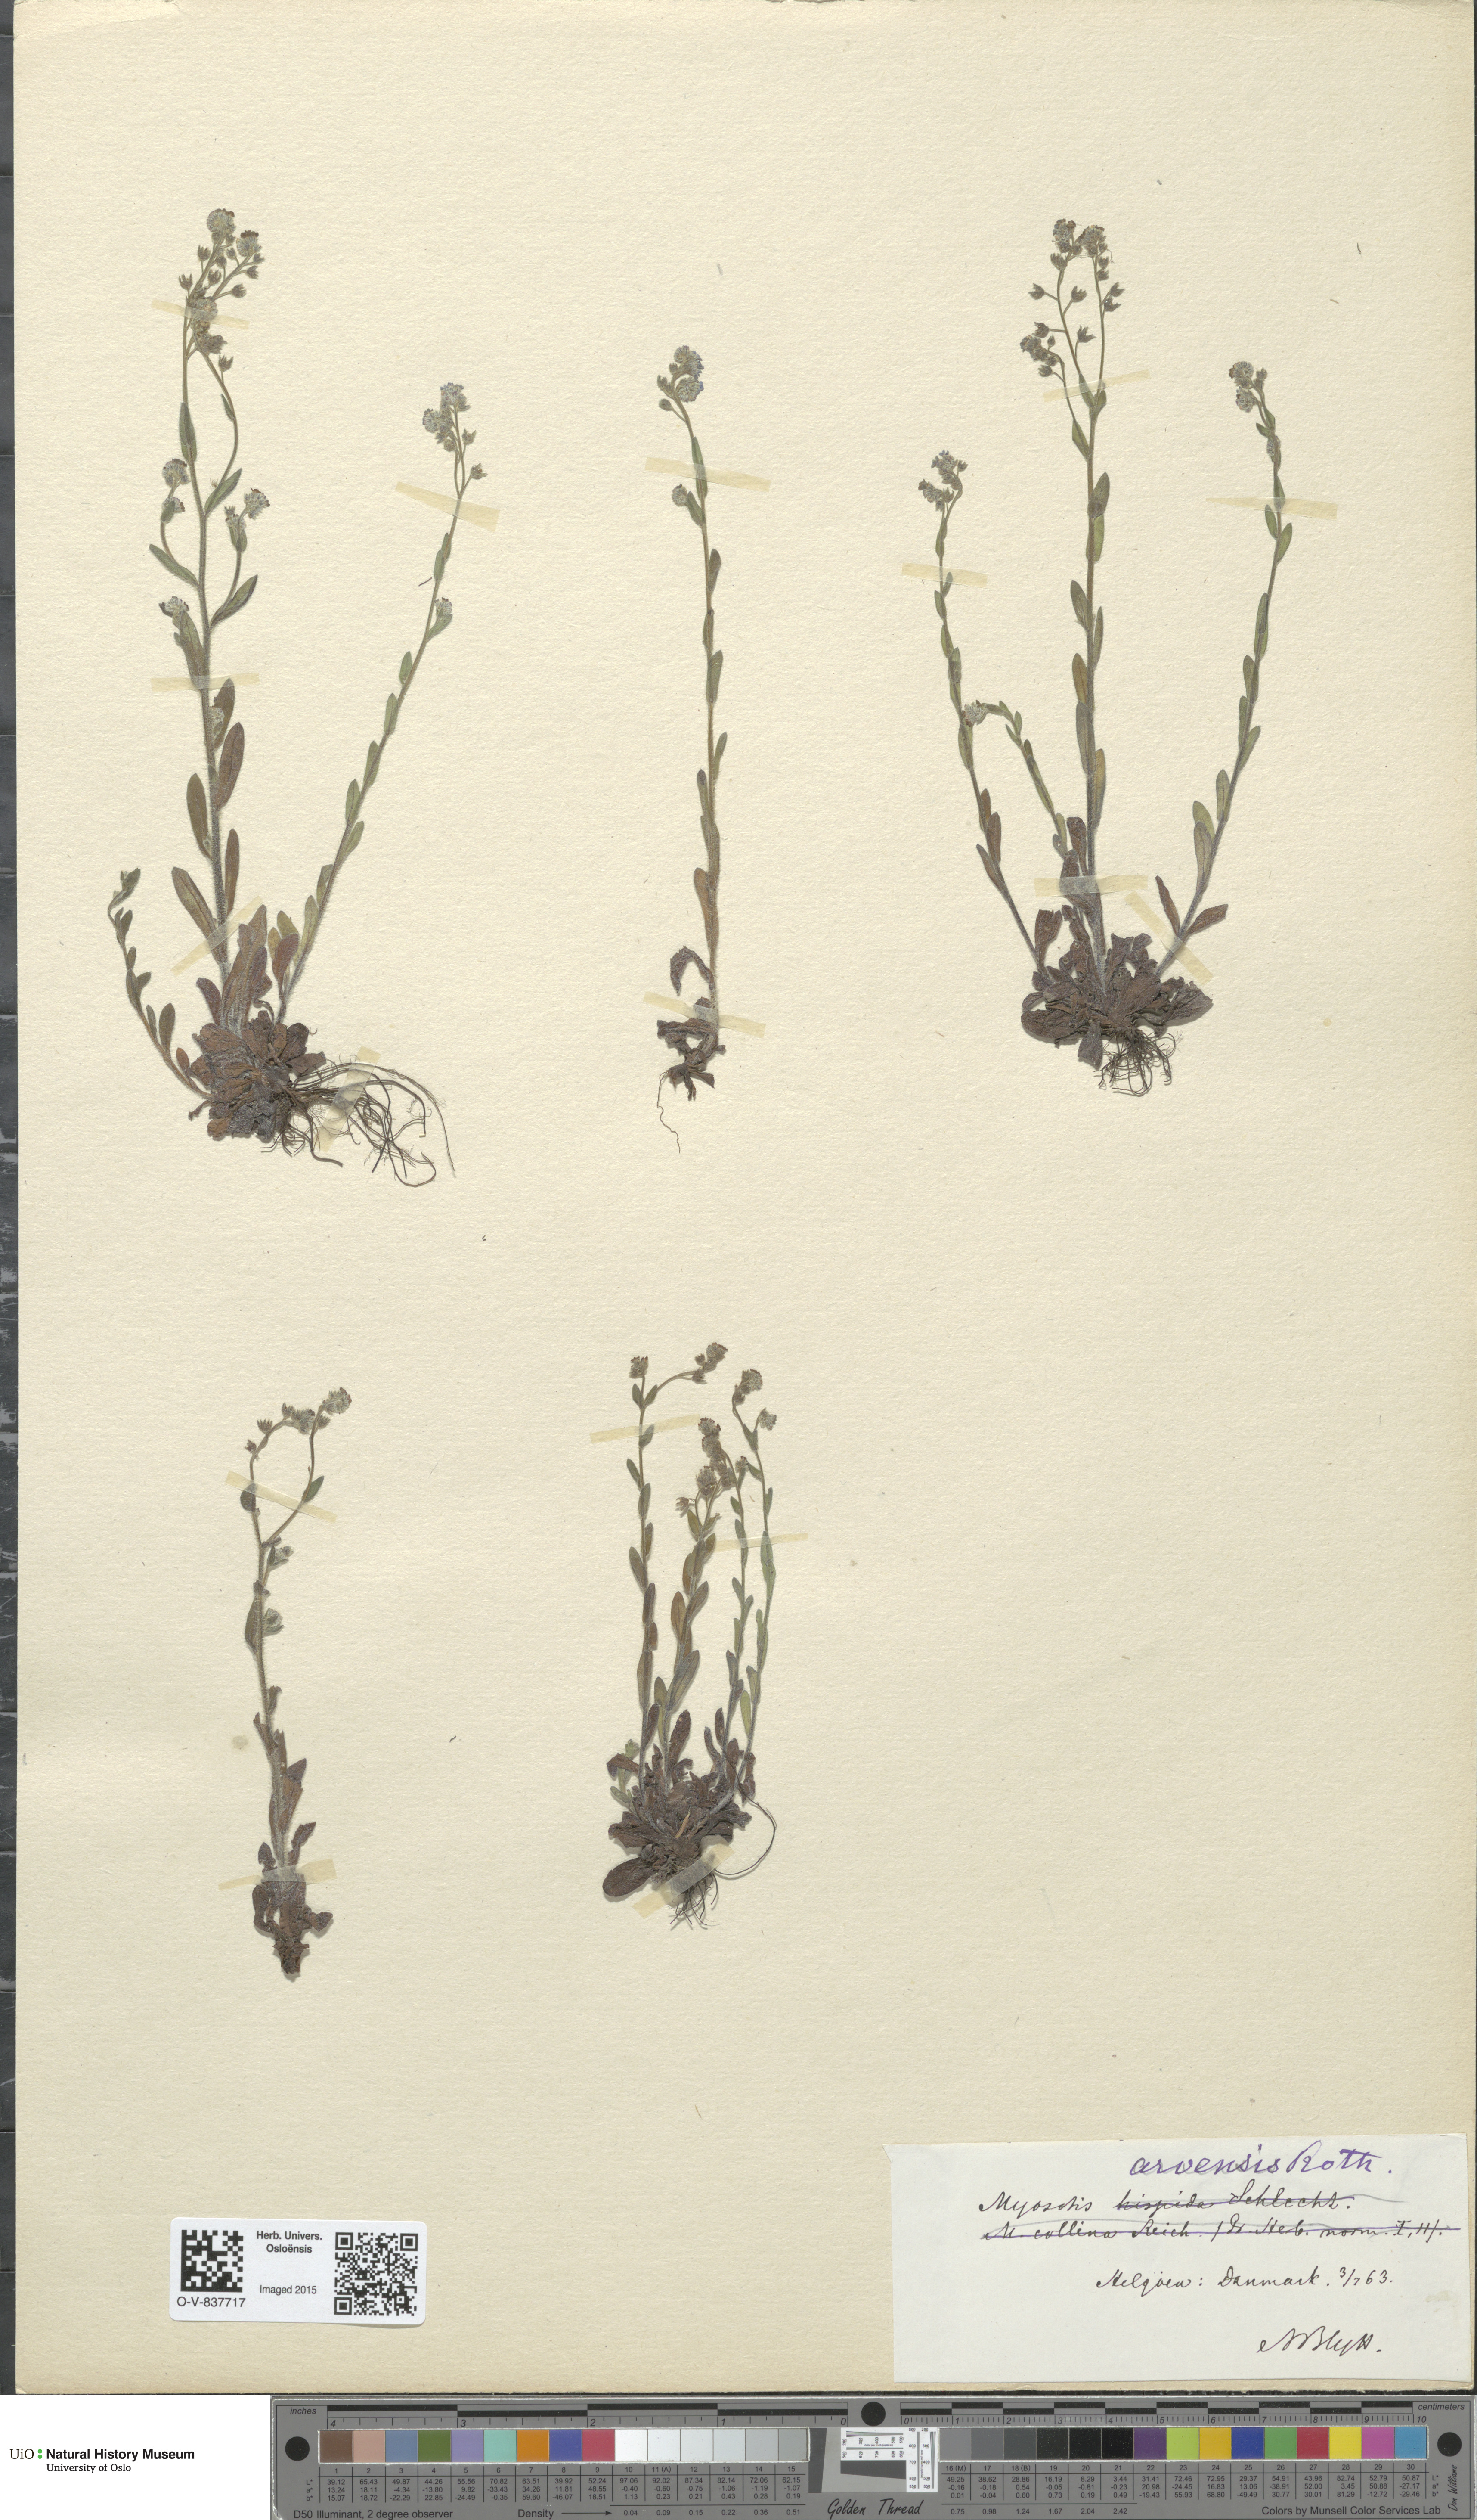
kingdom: Plantae
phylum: Tracheophyta
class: Magnoliopsida
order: Boraginales
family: Boraginaceae
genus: Myosotis
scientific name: Myosotis arvensis
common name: Field forget-me-not
